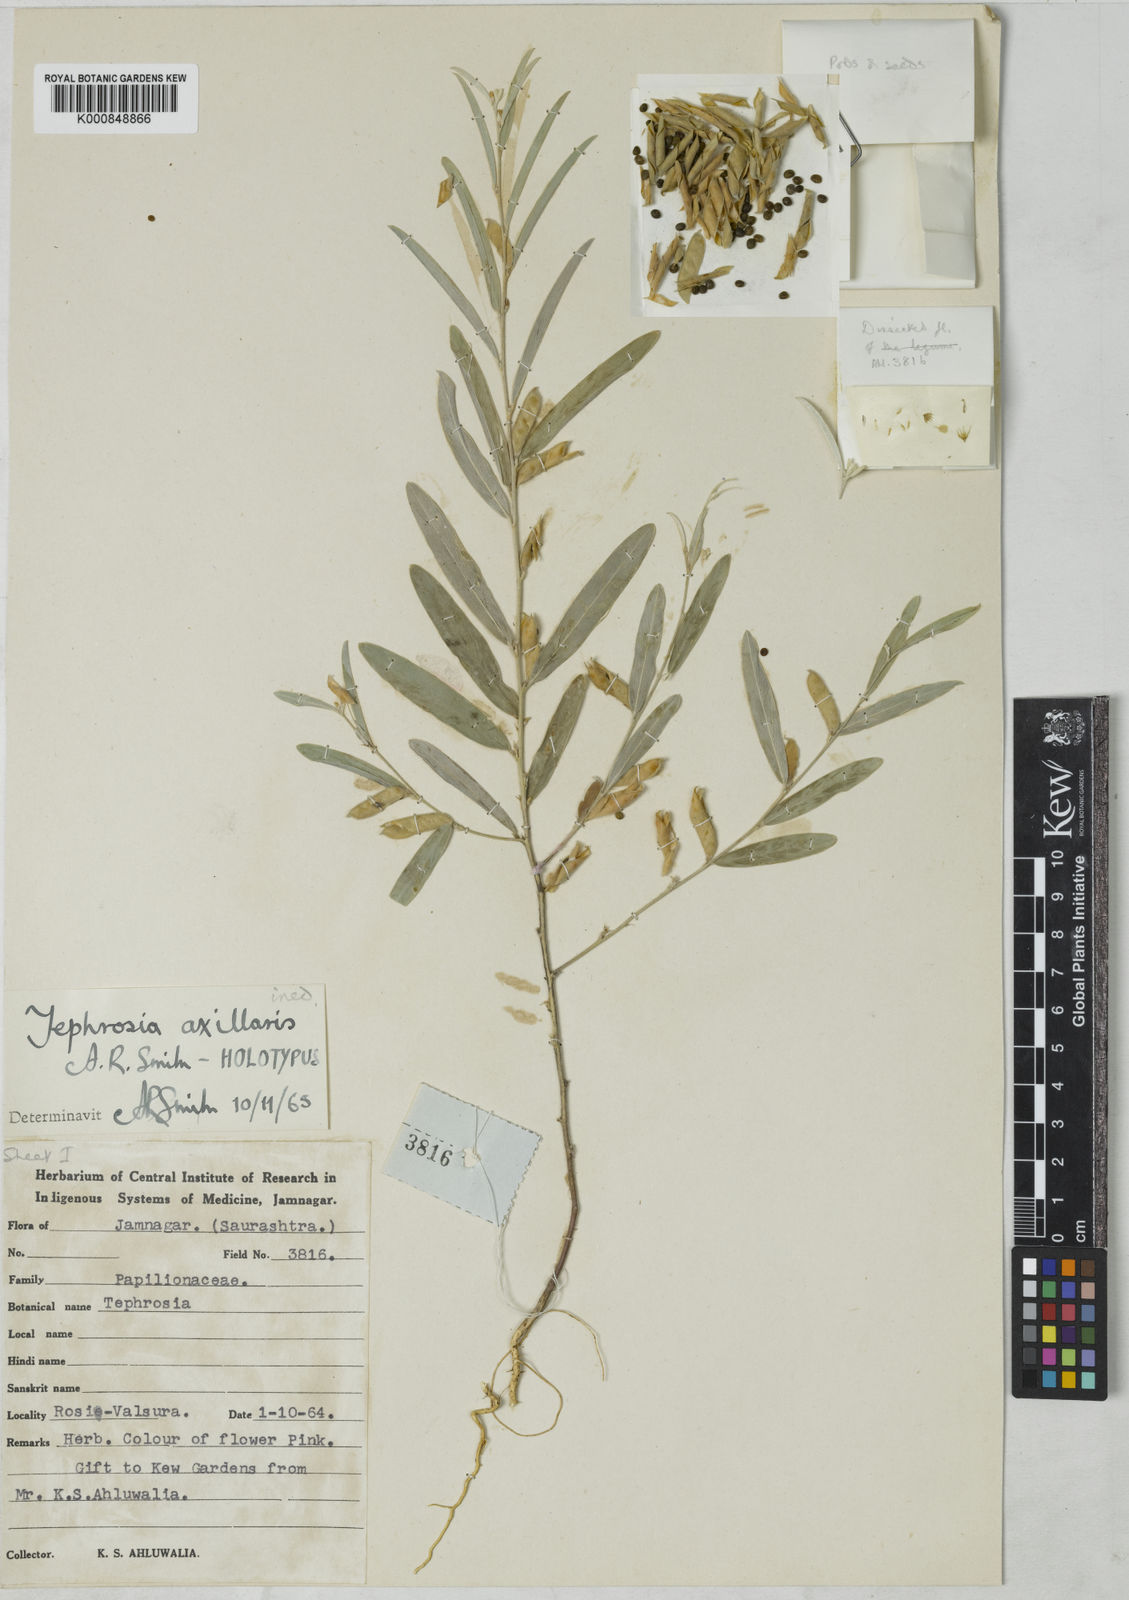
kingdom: Plantae
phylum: Tracheophyta
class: Magnoliopsida
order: Fabales
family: Fabaceae
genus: Tephrosia
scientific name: Tephrosia jamnagarensis
